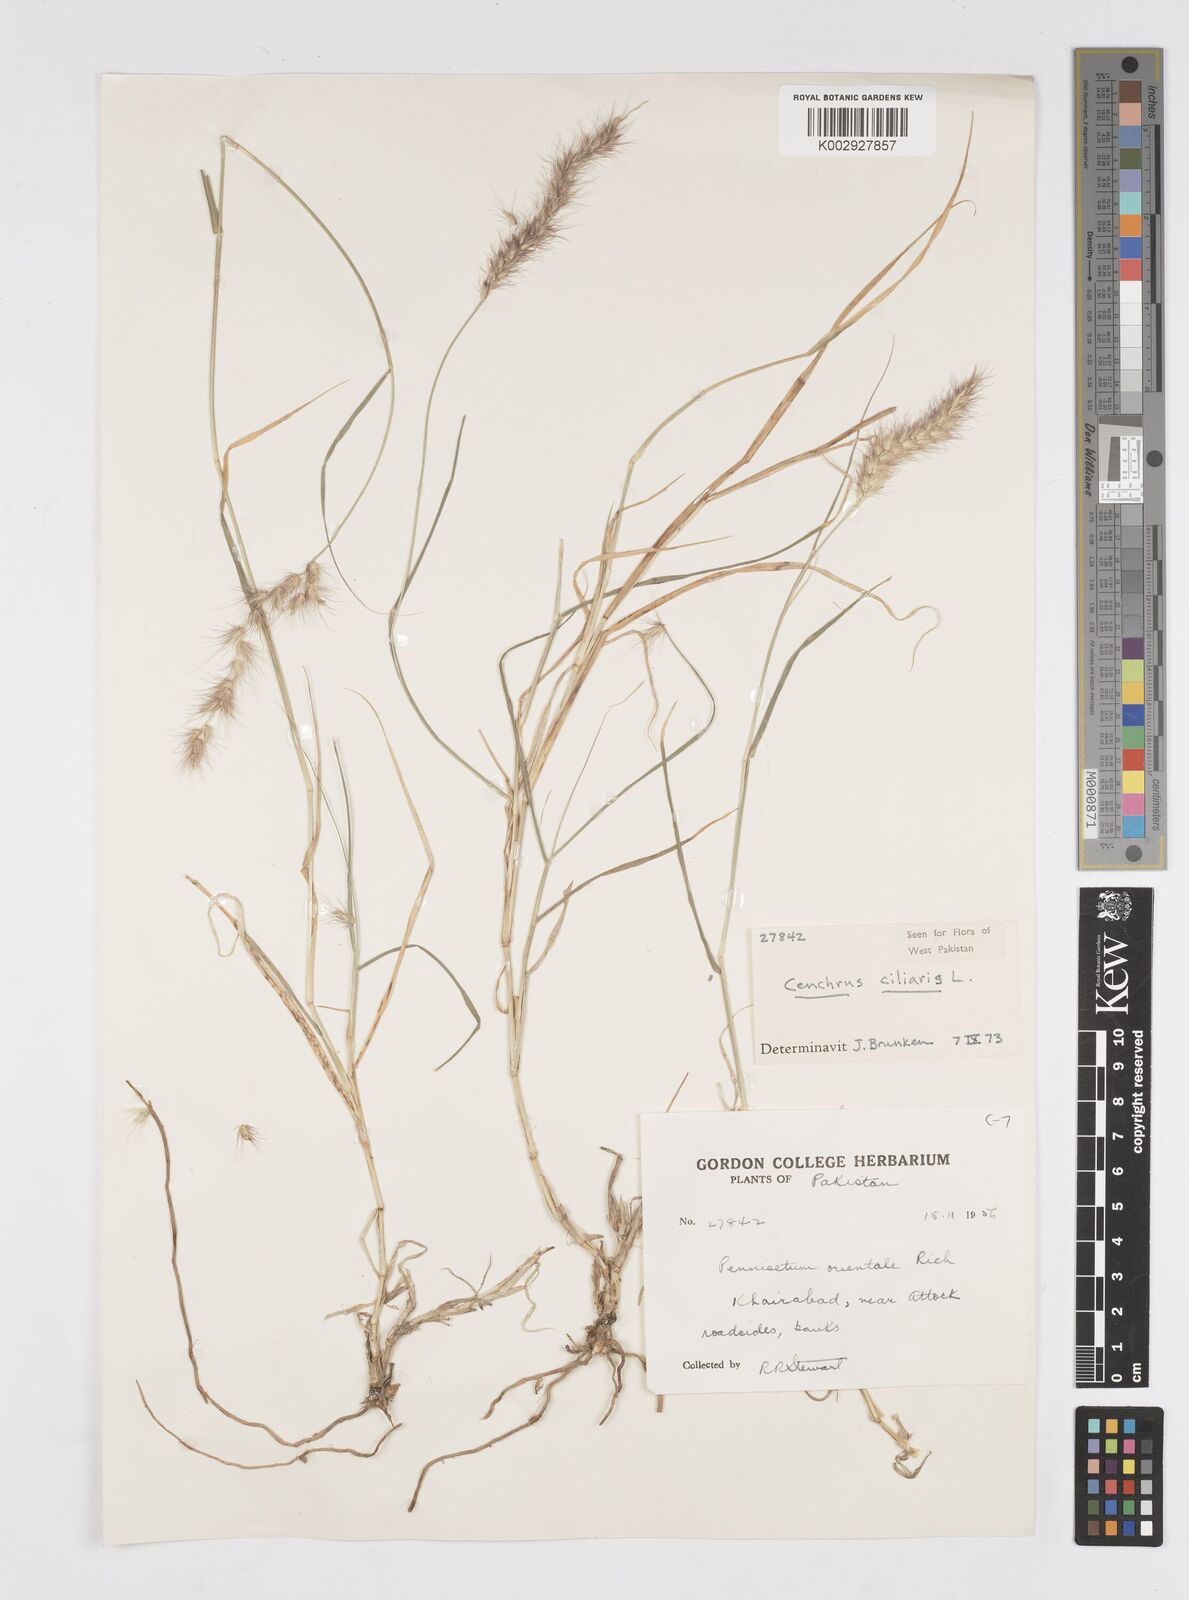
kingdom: Plantae
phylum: Tracheophyta
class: Liliopsida
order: Poales
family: Poaceae
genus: Cenchrus
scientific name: Cenchrus ciliaris
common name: Buffelgrass
